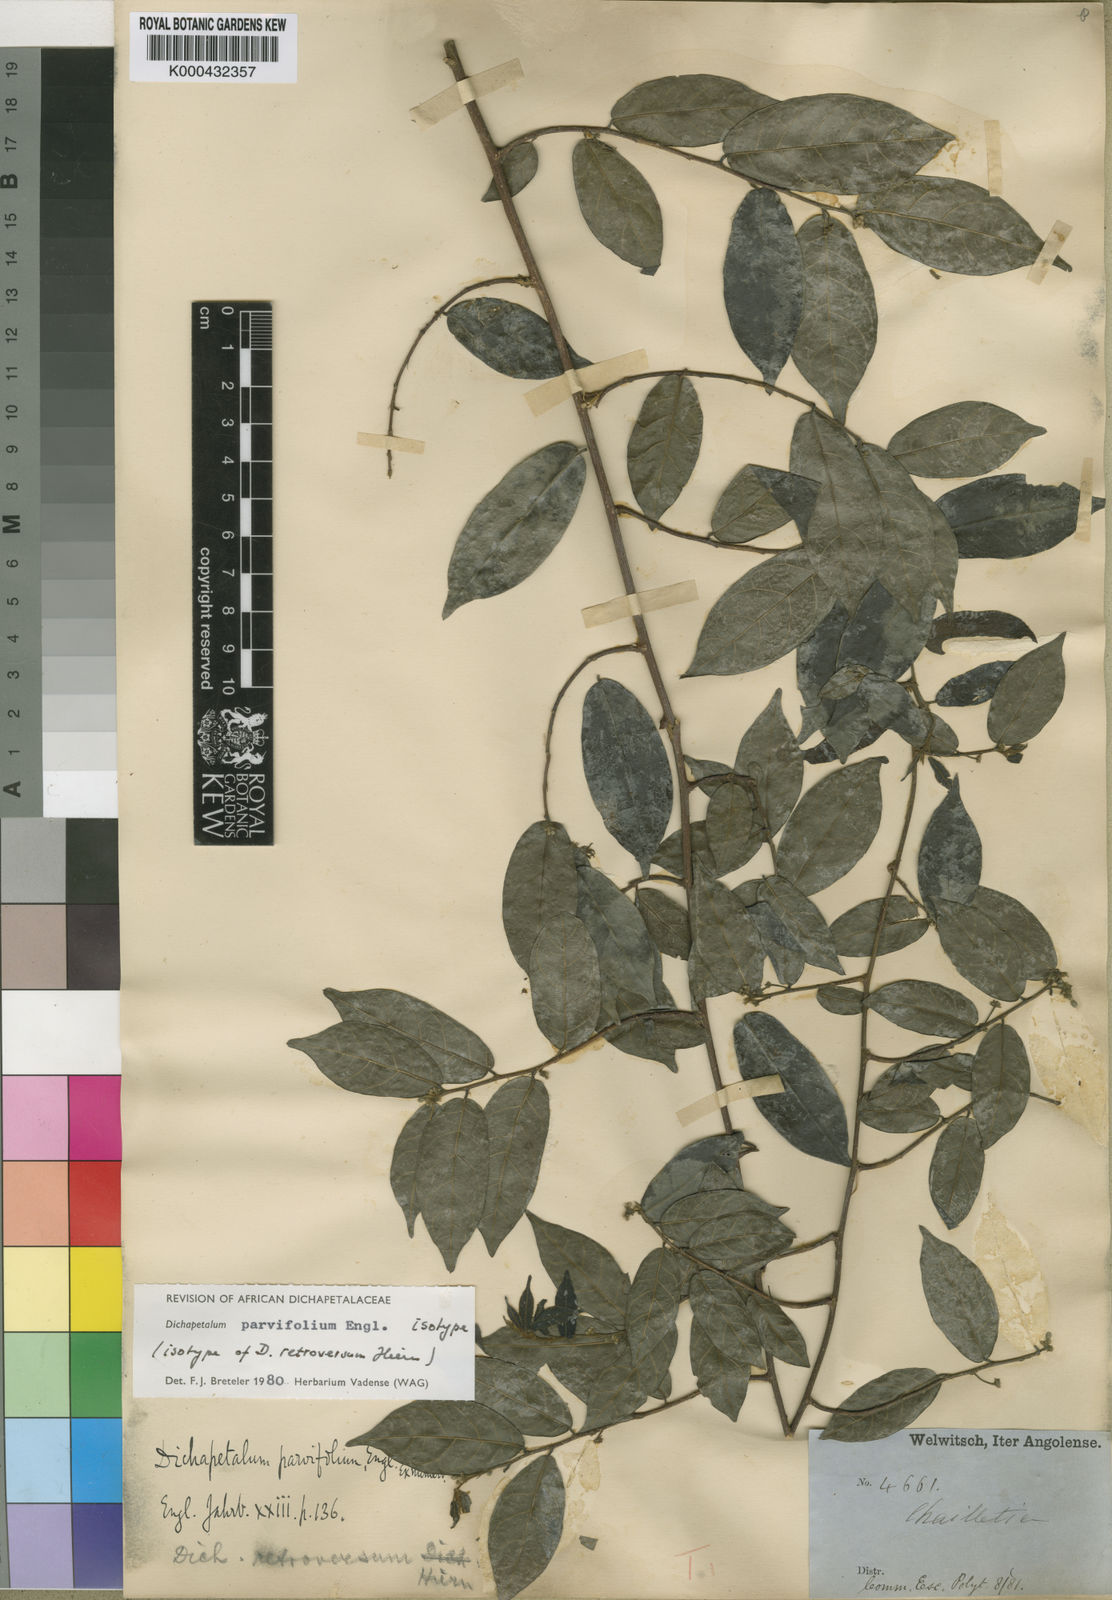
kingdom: Plantae
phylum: Tracheophyta
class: Magnoliopsida
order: Malpighiales
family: Dichapetalaceae
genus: Dichapetalum
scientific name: Dichapetalum parvifolium
